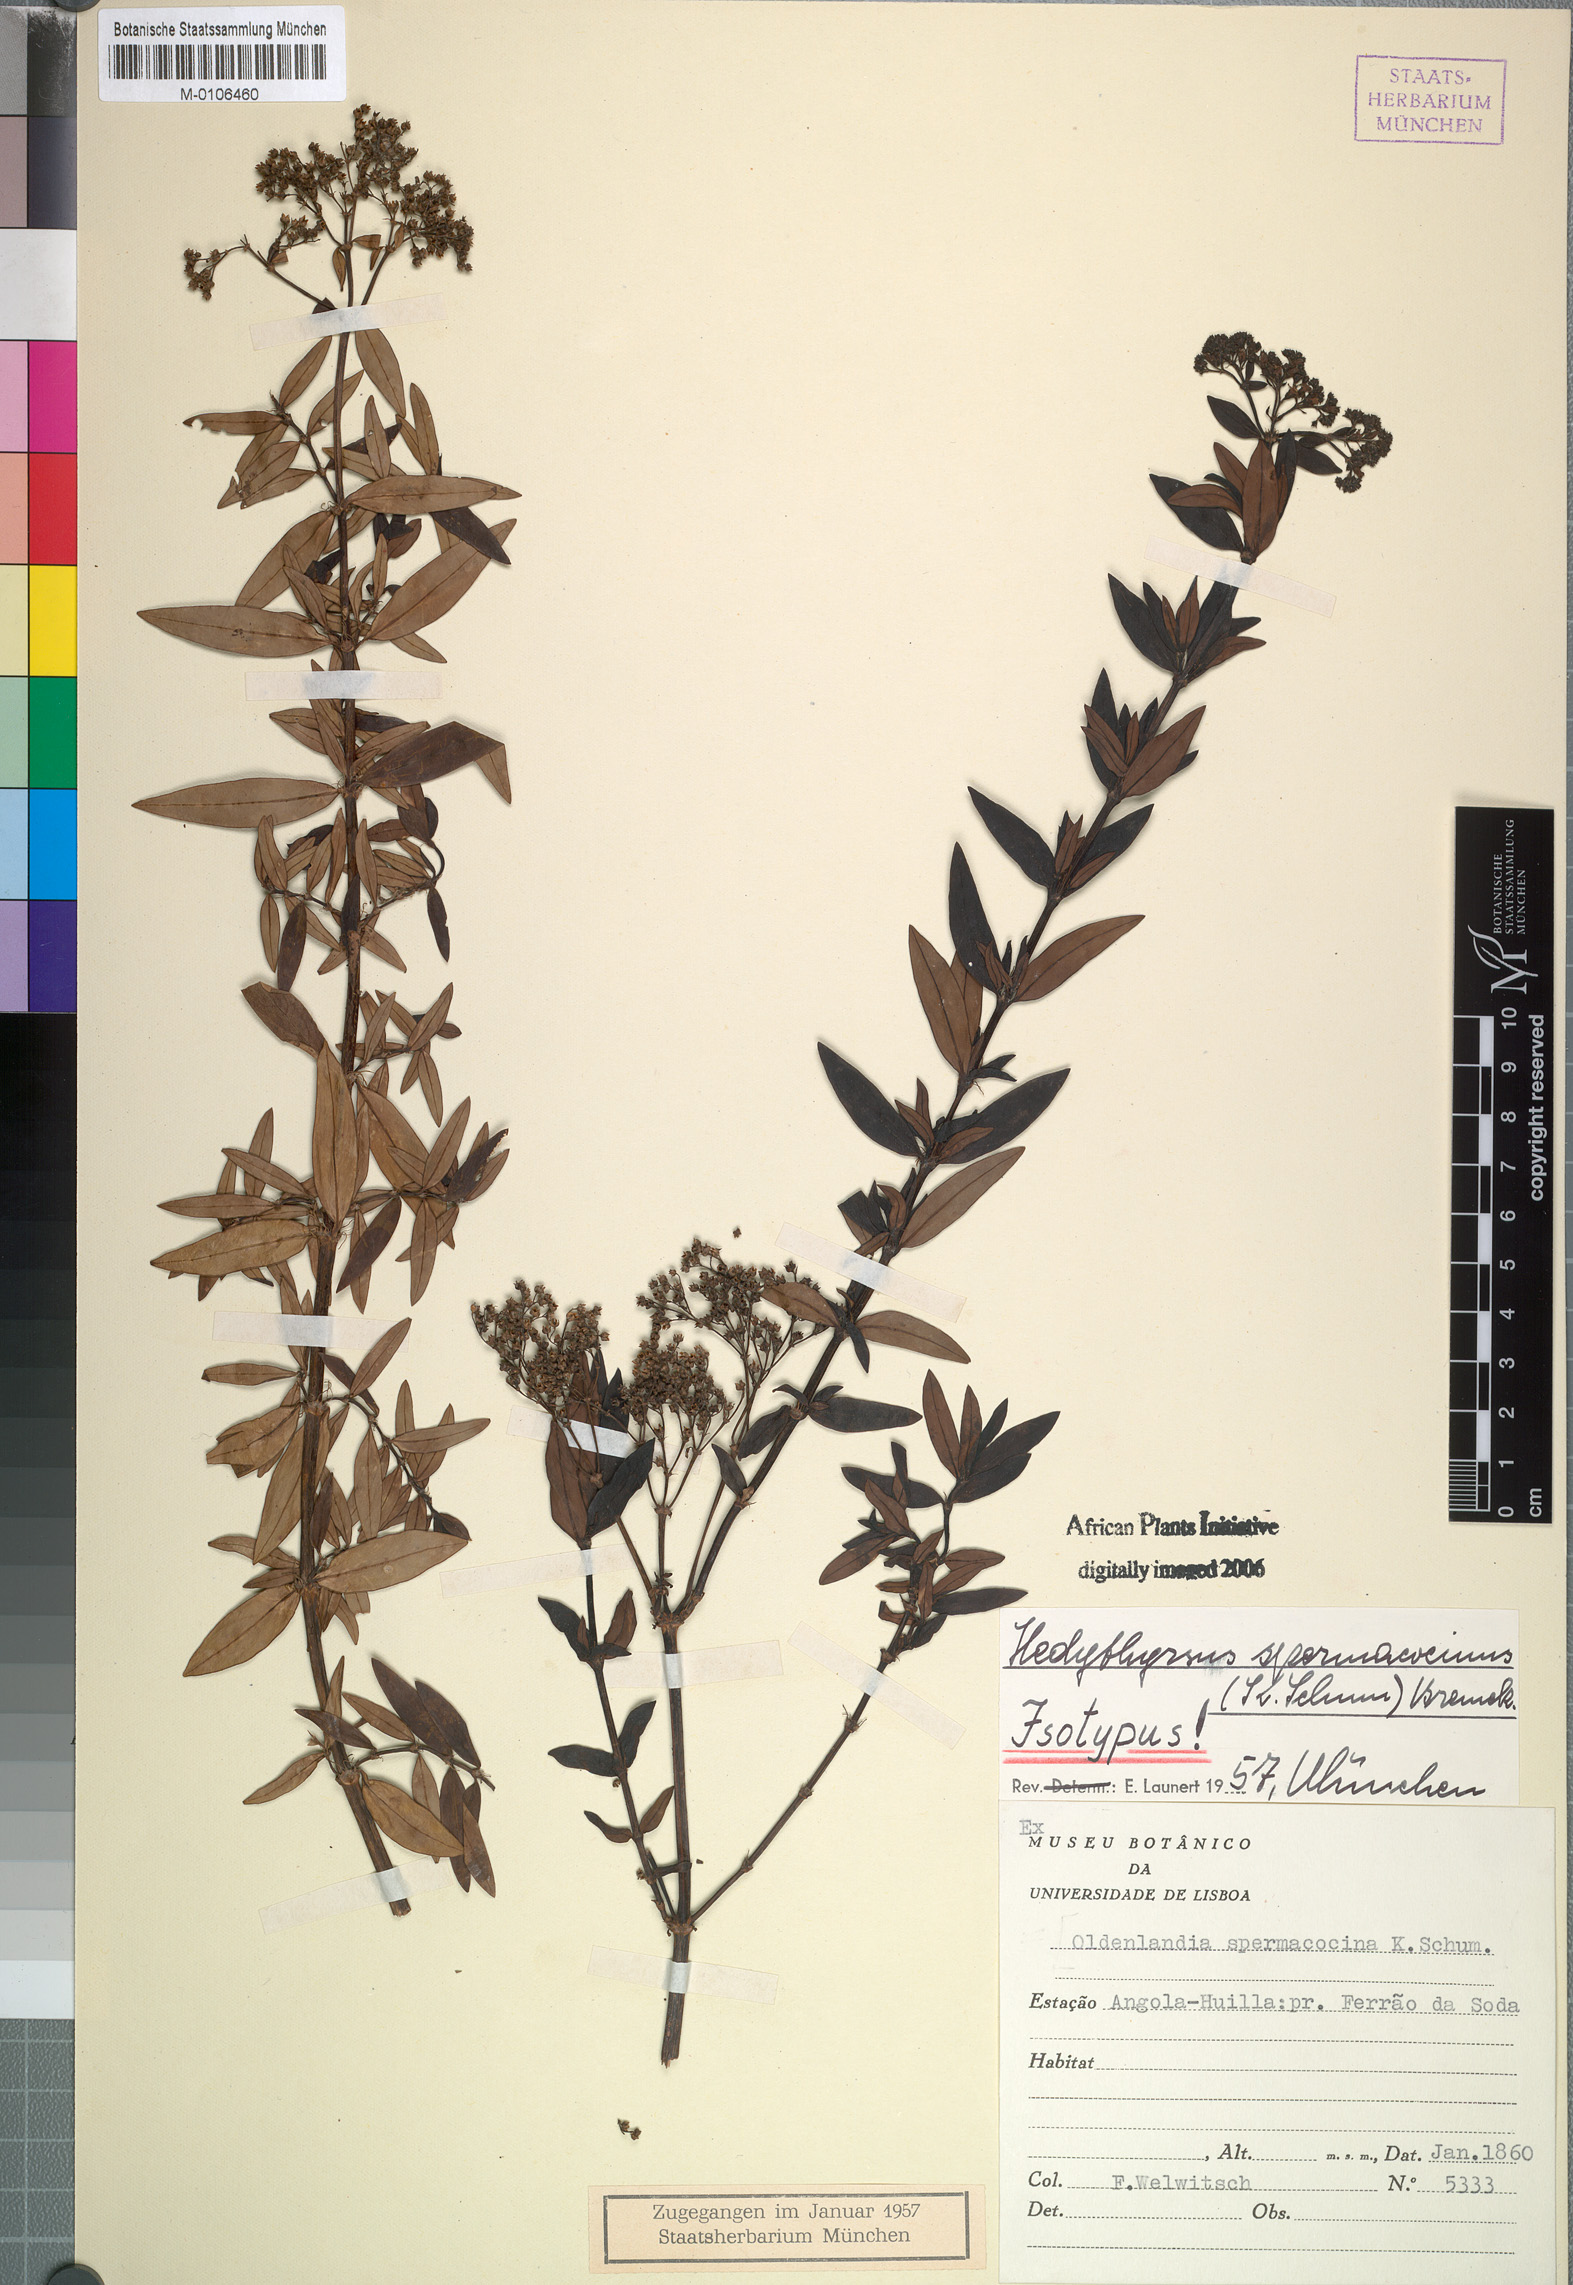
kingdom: Plantae
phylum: Tracheophyta
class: Magnoliopsida
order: Gentianales
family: Rubiaceae
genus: Hedythyrsus
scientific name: Hedythyrsus spermacocinus
